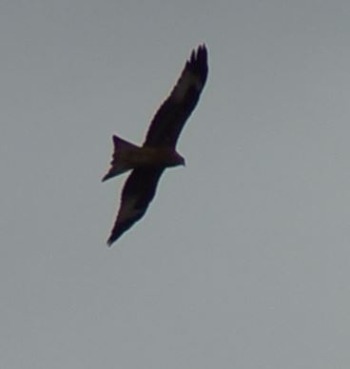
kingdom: Animalia
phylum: Chordata
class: Aves
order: Accipitriformes
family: Accipitridae
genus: Milvus
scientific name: Milvus milvus
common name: Rød glente
